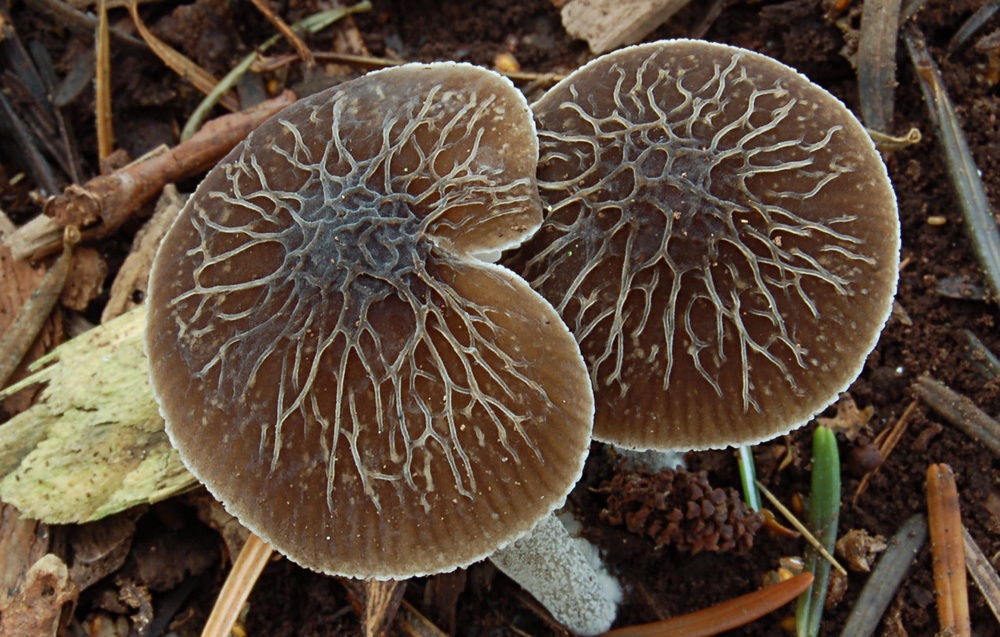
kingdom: Fungi
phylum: Basidiomycota
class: Agaricomycetes
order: Agaricales
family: Pluteaceae
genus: Pluteus
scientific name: Pluteus
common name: gråstokket skærmhat
